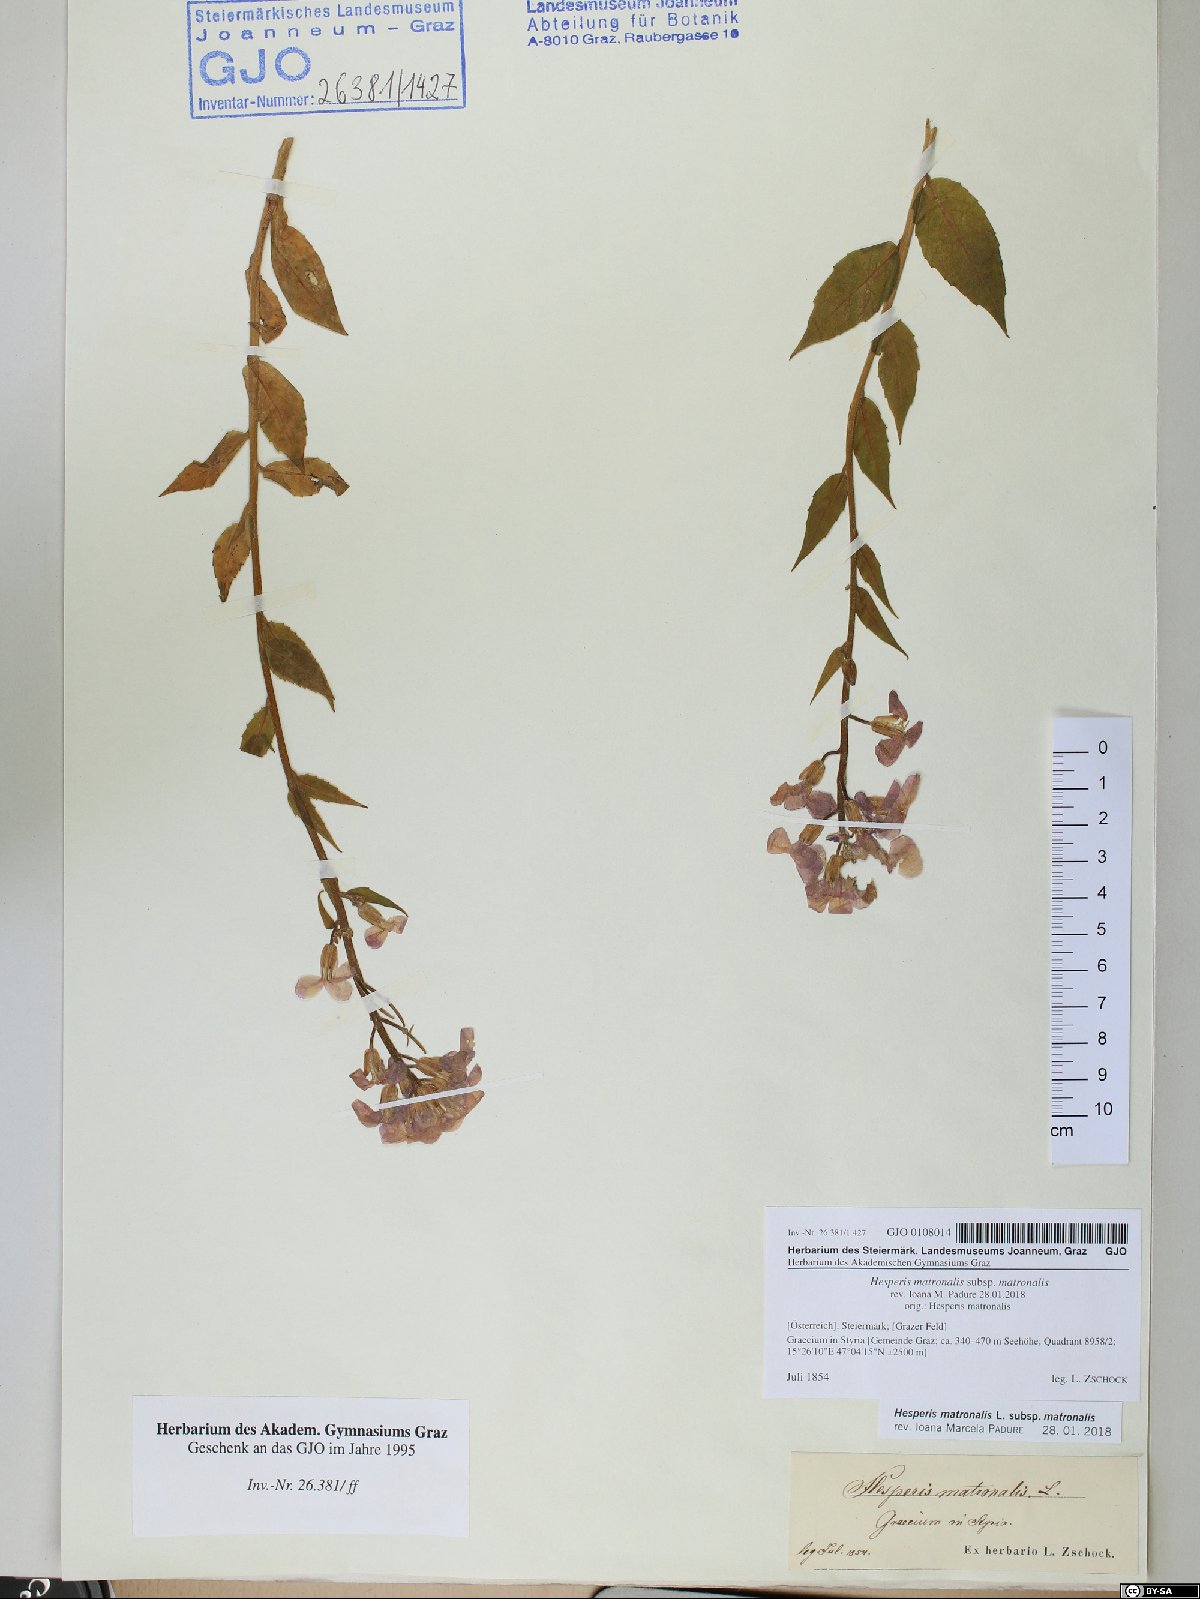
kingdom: Plantae
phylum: Tracheophyta
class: Magnoliopsida
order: Brassicales
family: Brassicaceae
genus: Hesperis
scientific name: Hesperis matronalis
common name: Dame's-violet
